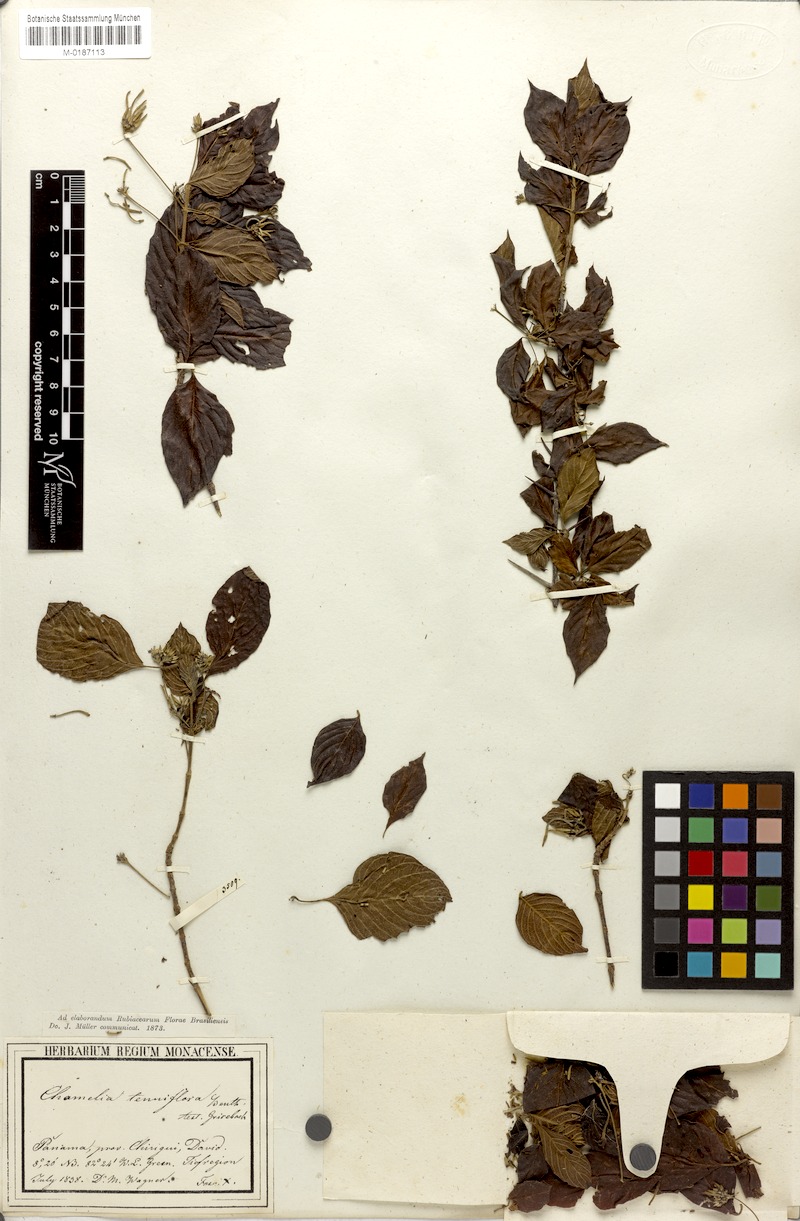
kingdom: Plantae
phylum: Tracheophyta
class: Magnoliopsida
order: Gentianales
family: Rubiaceae
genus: Chomelia
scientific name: Chomelia
